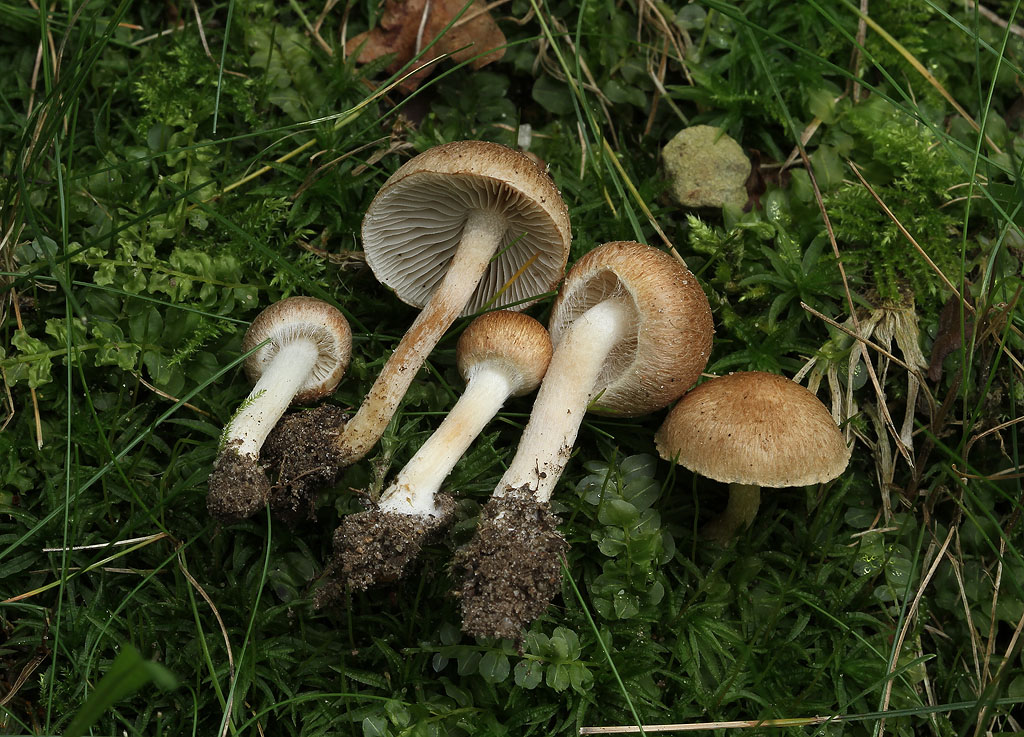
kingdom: Fungi
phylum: Basidiomycota
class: Agaricomycetes
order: Agaricales
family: Inocybaceae
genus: Inocybe
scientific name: Inocybe
